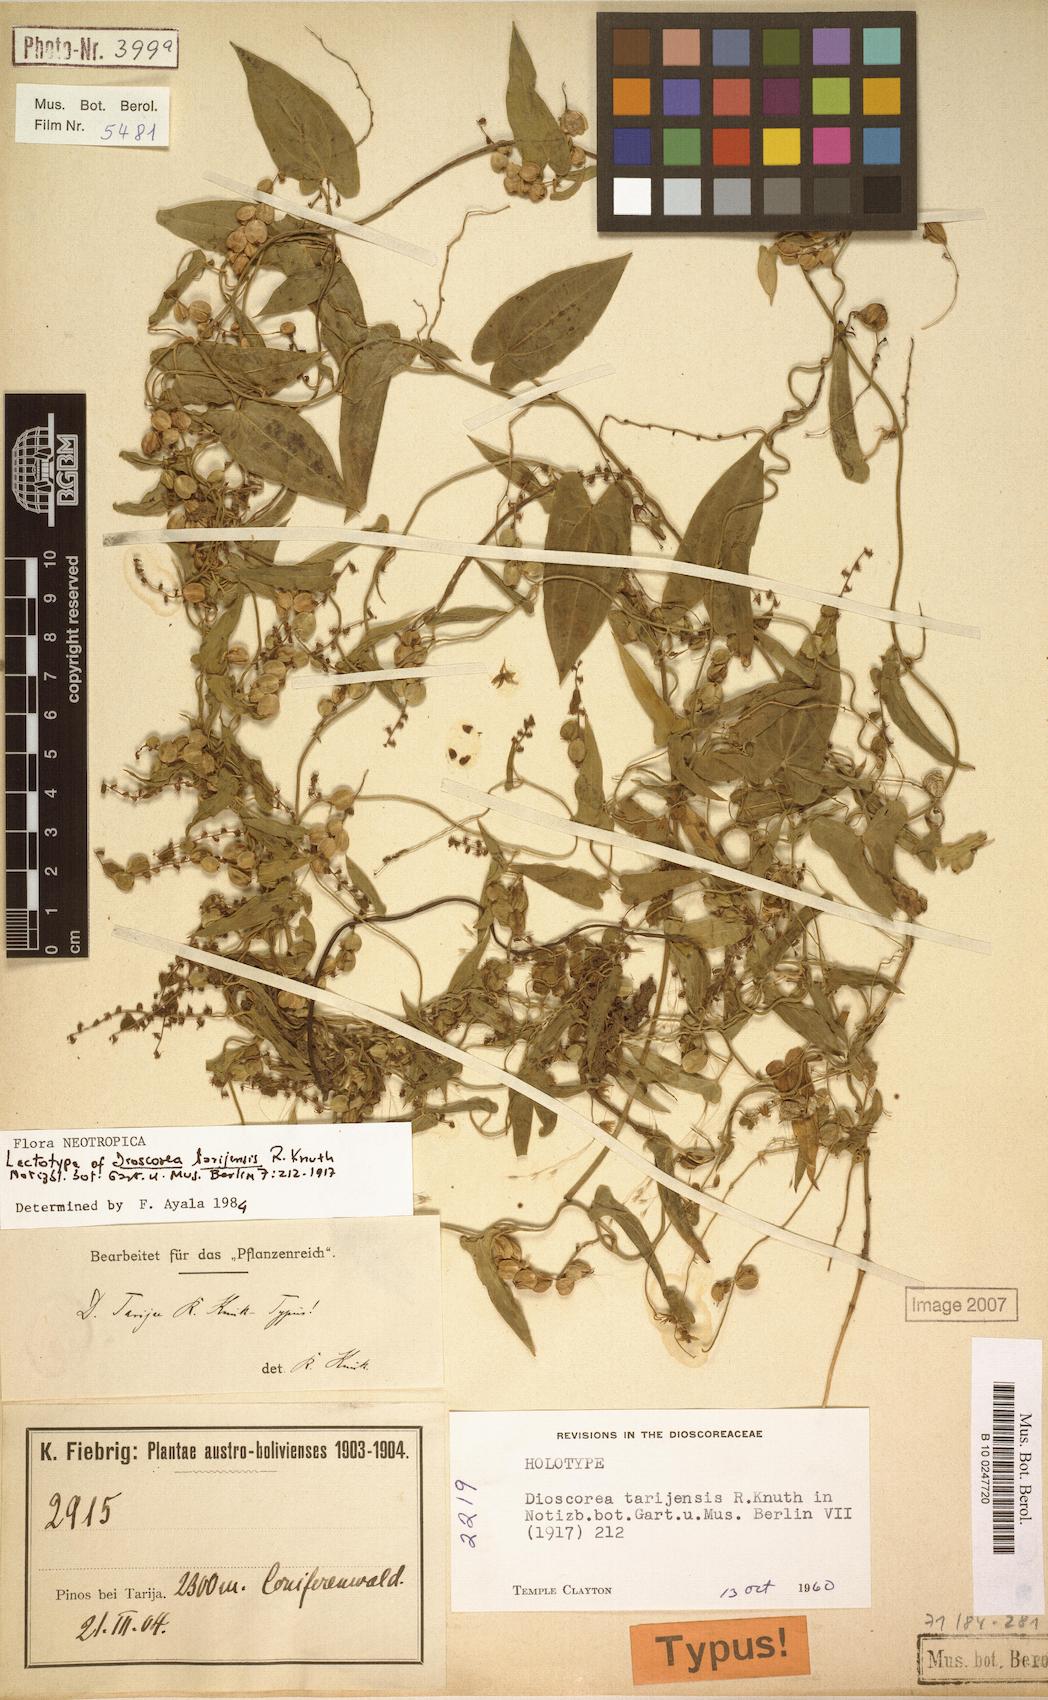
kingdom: Plantae
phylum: Tracheophyta
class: Liliopsida
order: Dioscoreales
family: Dioscoreaceae
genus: Dioscorea
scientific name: Dioscorea tarijensis
